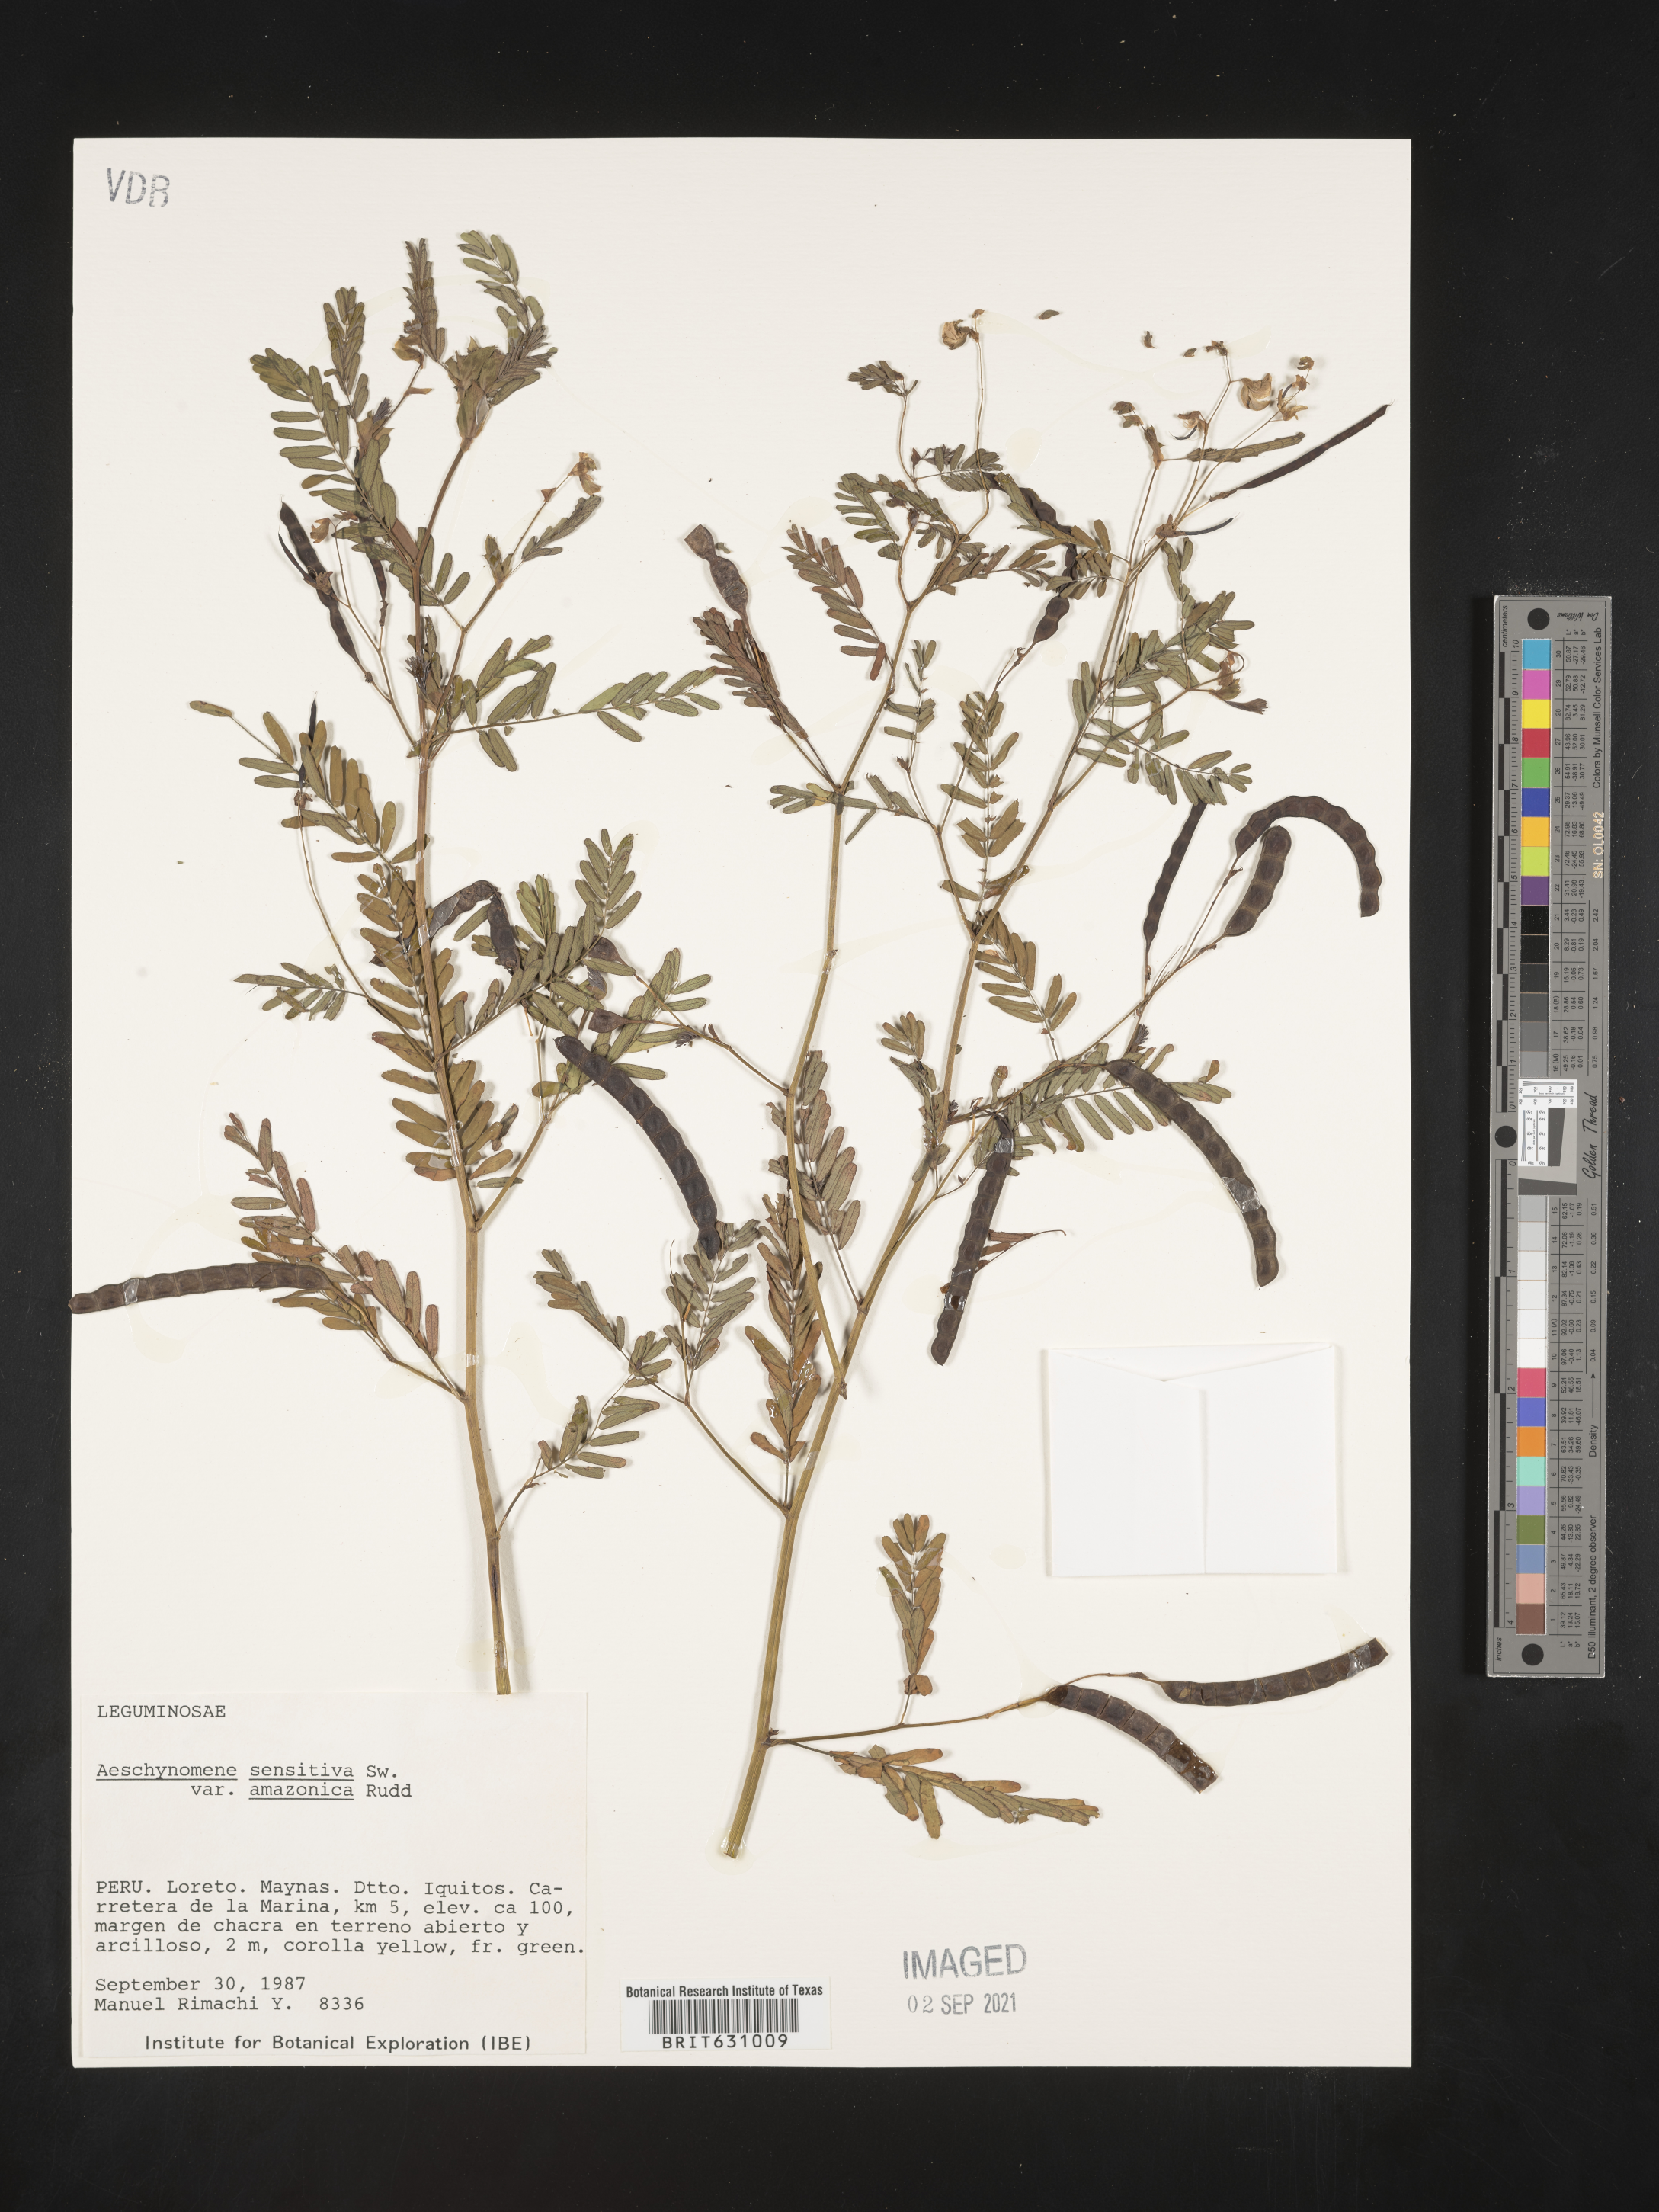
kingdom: Plantae
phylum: Tracheophyta
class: Magnoliopsida
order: Fabales
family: Fabaceae
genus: Aeschynomene
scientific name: Aeschynomene
